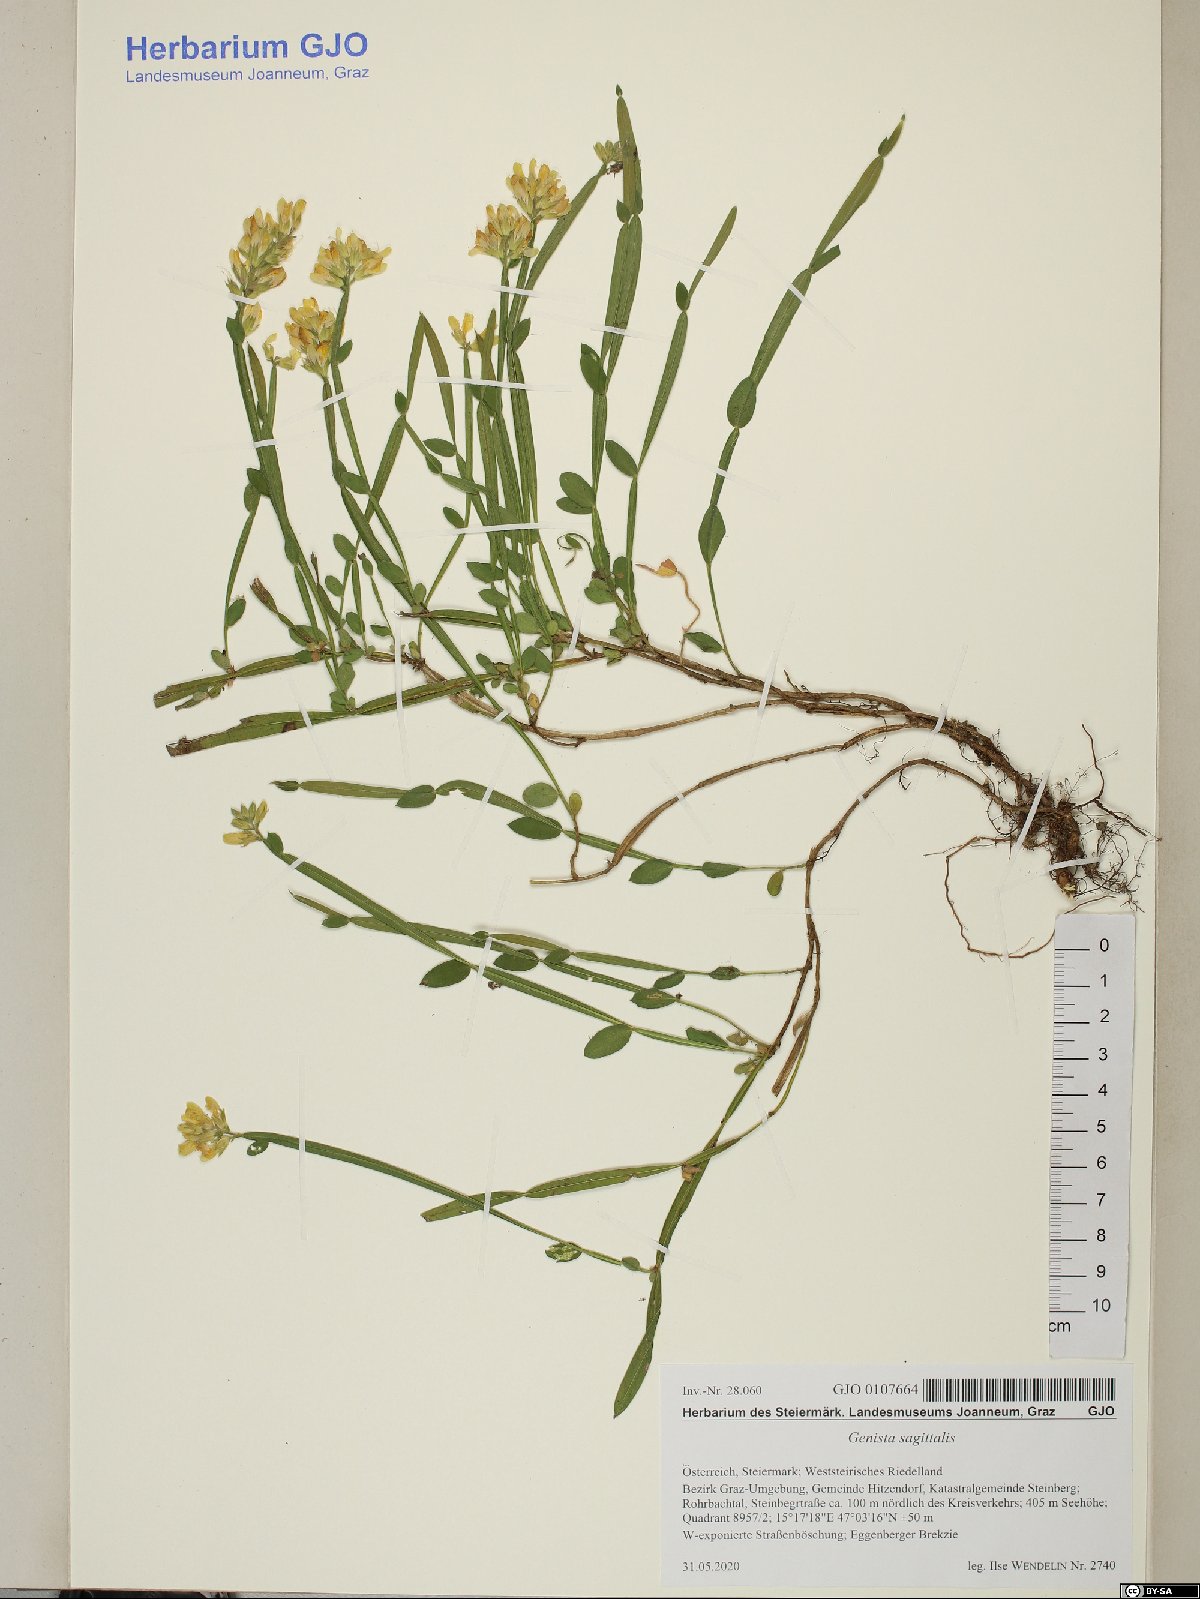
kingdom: Plantae
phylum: Tracheophyta
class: Magnoliopsida
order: Fabales
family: Fabaceae
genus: Genista
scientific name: Genista sagittalis
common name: Winged greenweed
